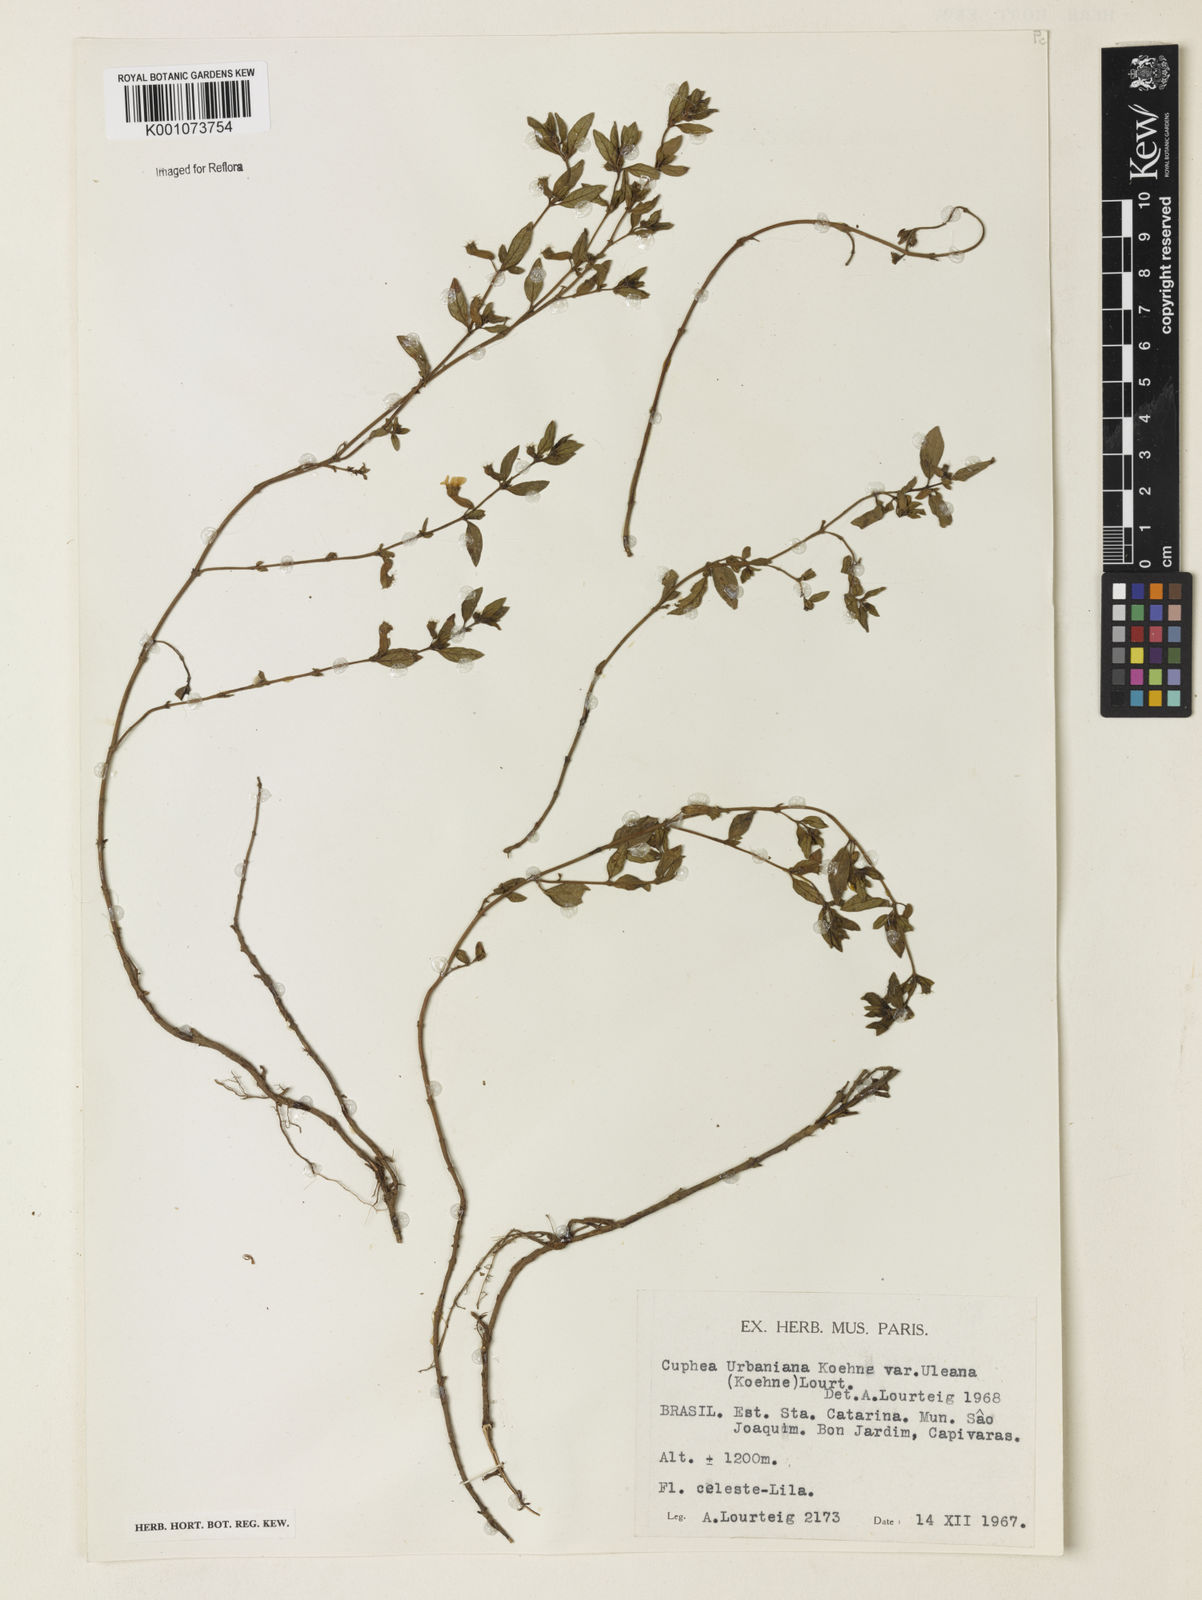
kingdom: Plantae
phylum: Tracheophyta
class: Magnoliopsida
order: Myrtales
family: Lythraceae
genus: Cuphea
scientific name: Cuphea urbaniana
